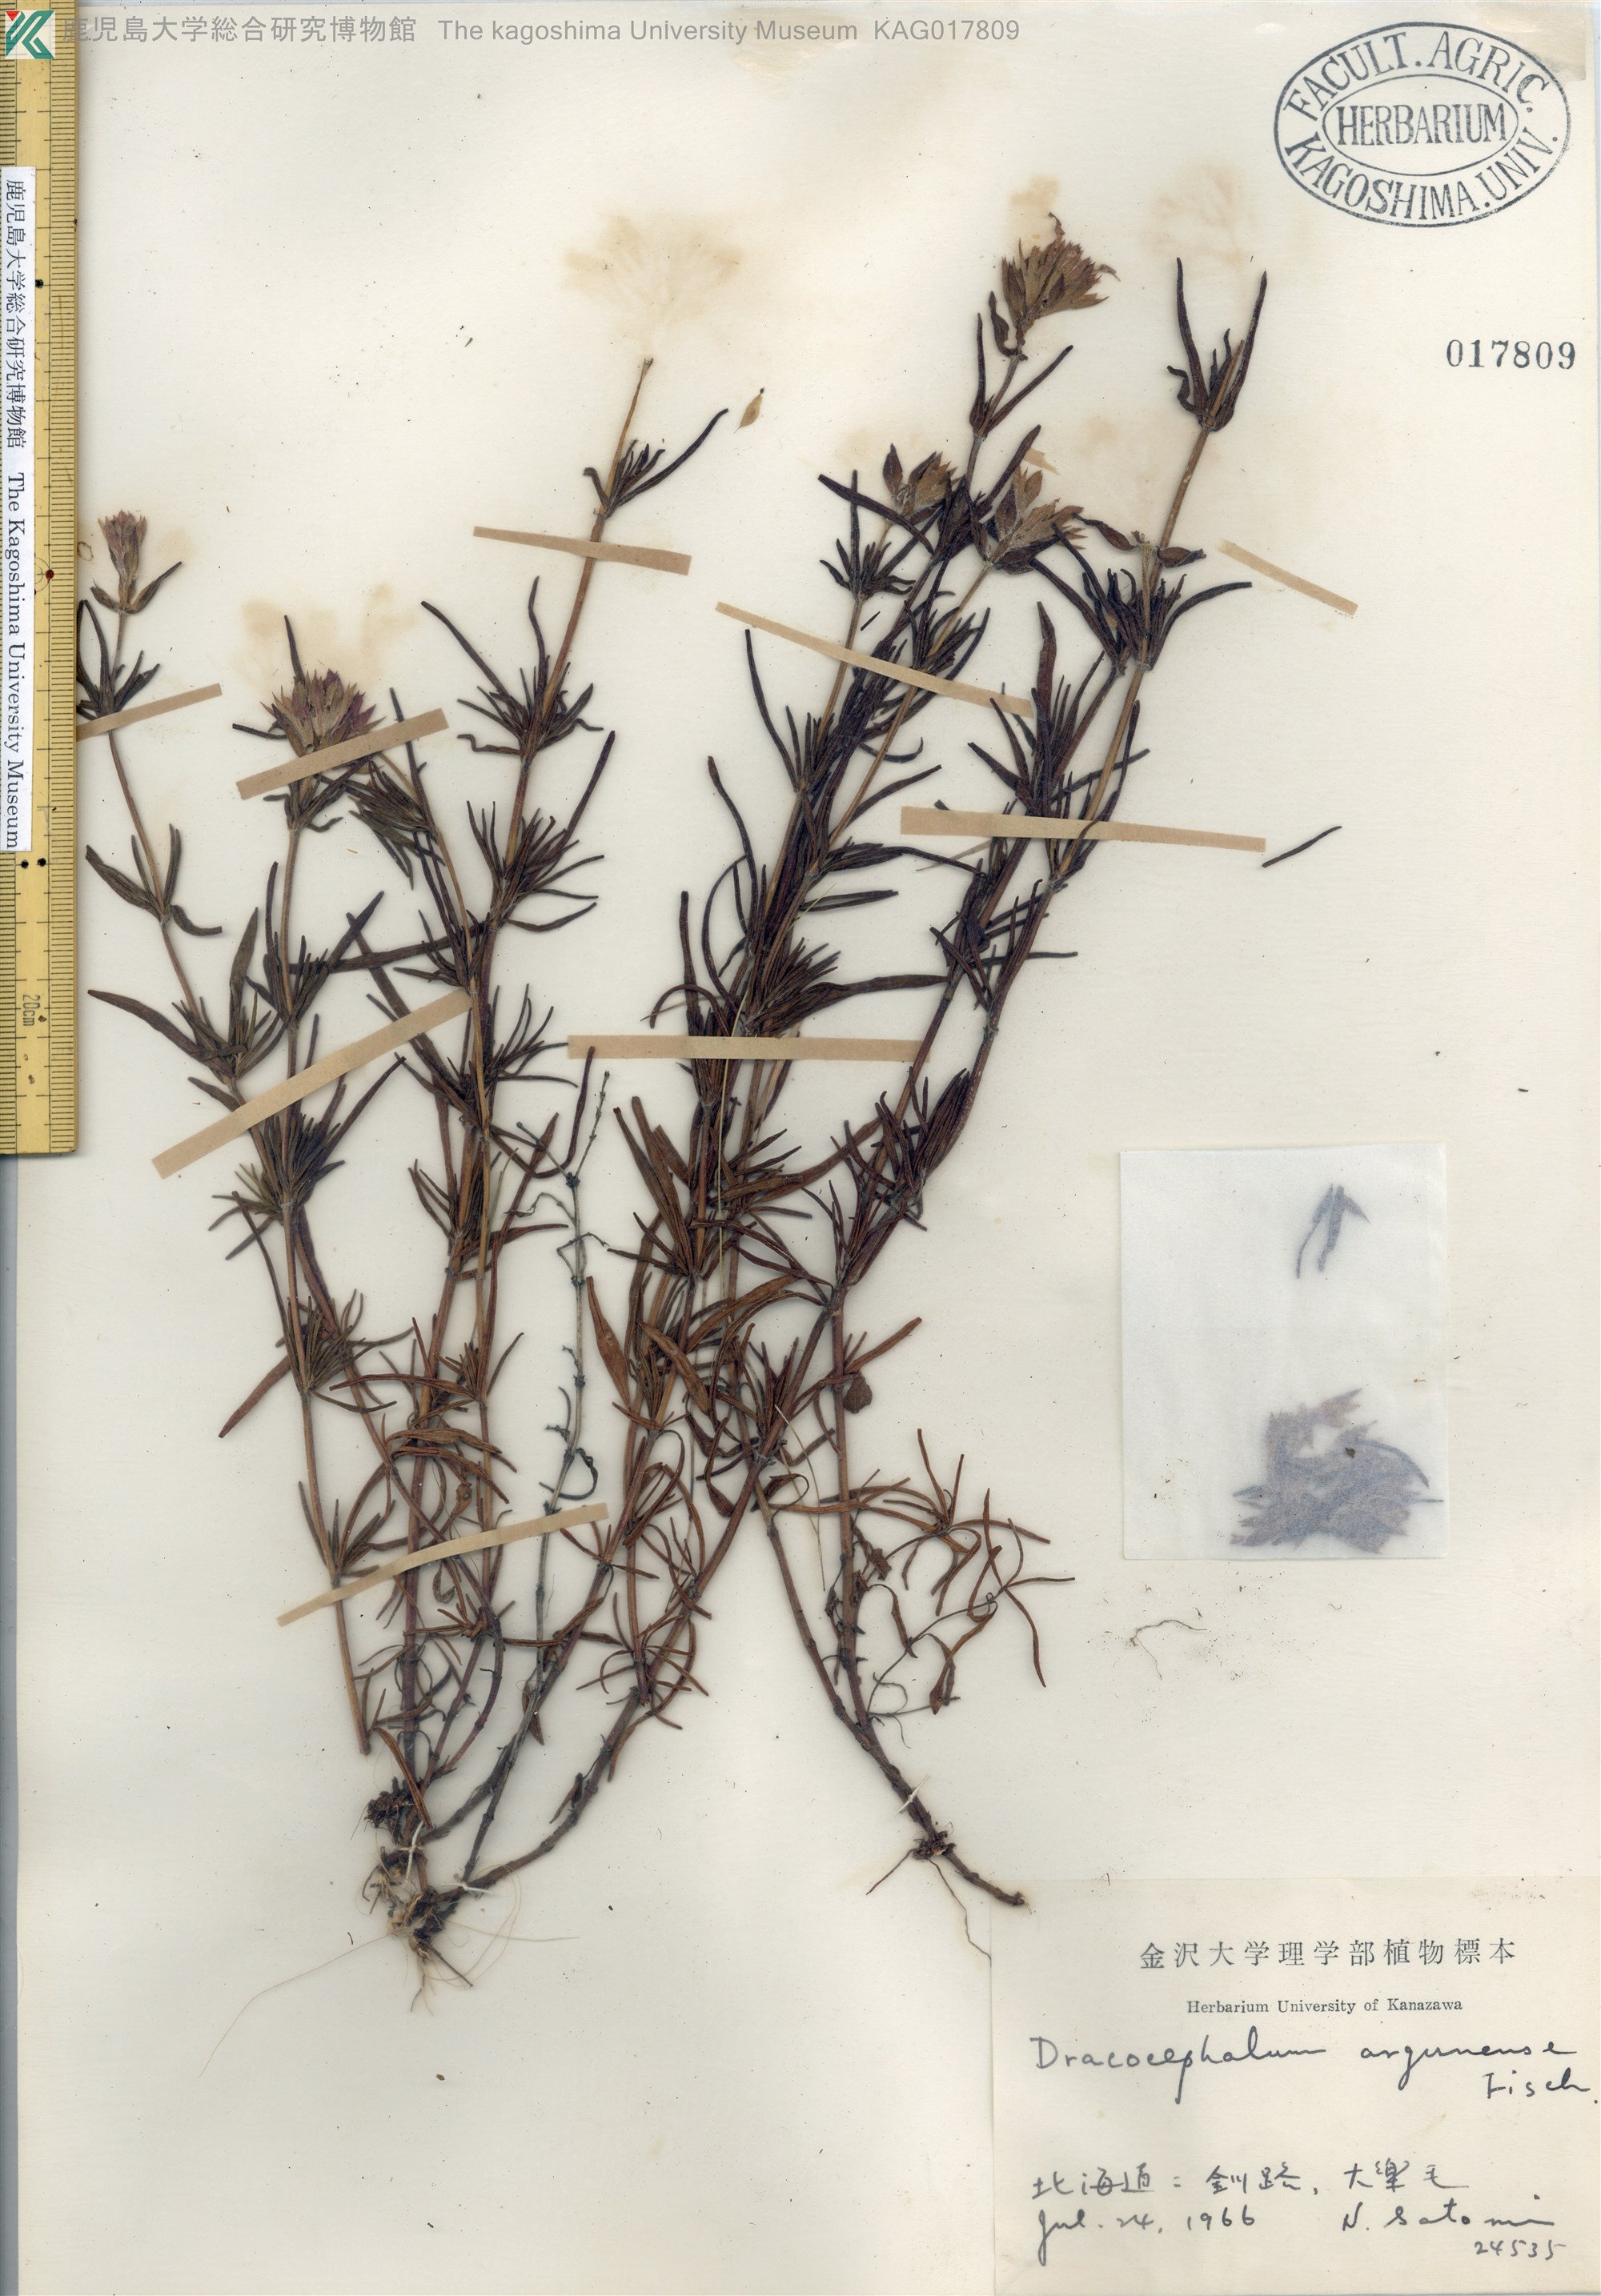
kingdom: Plantae
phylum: Tracheophyta
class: Magnoliopsida
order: Lamiales
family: Lamiaceae
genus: Dracocephalum
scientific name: Dracocephalum argunense
